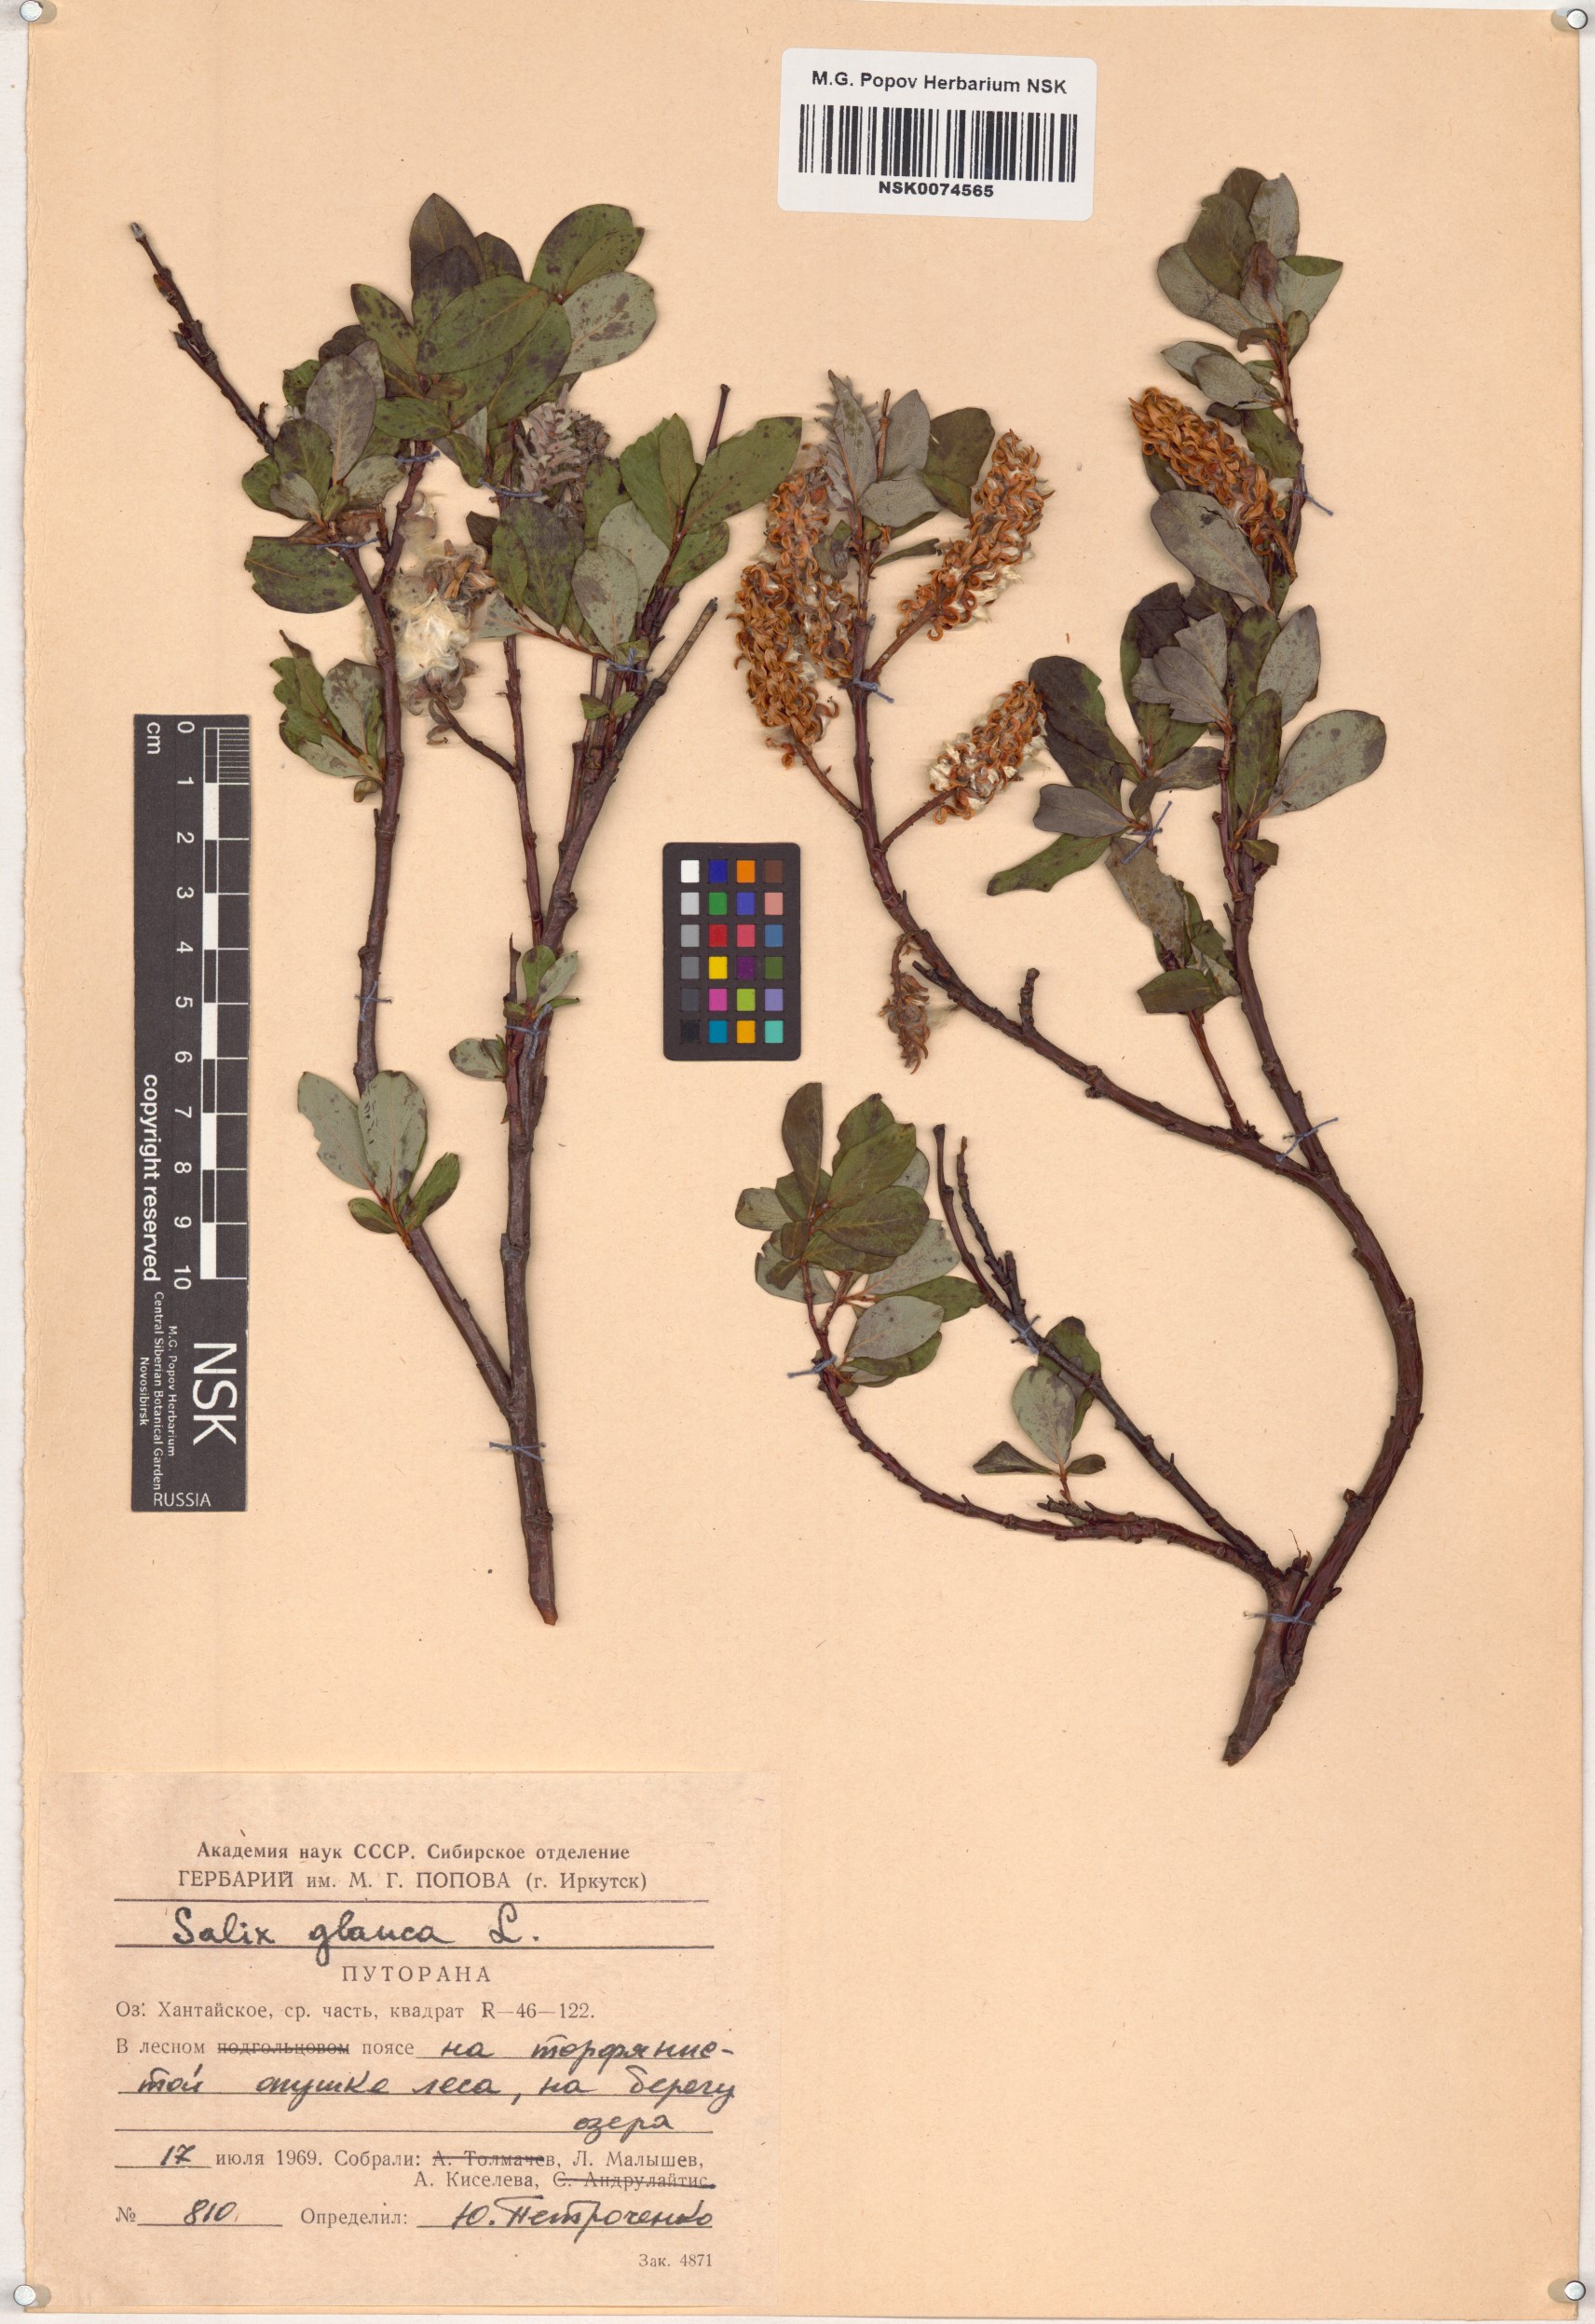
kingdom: Plantae
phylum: Tracheophyta
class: Magnoliopsida
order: Malpighiales
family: Salicaceae
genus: Salix
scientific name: Salix glauca
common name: Glaucous willow
